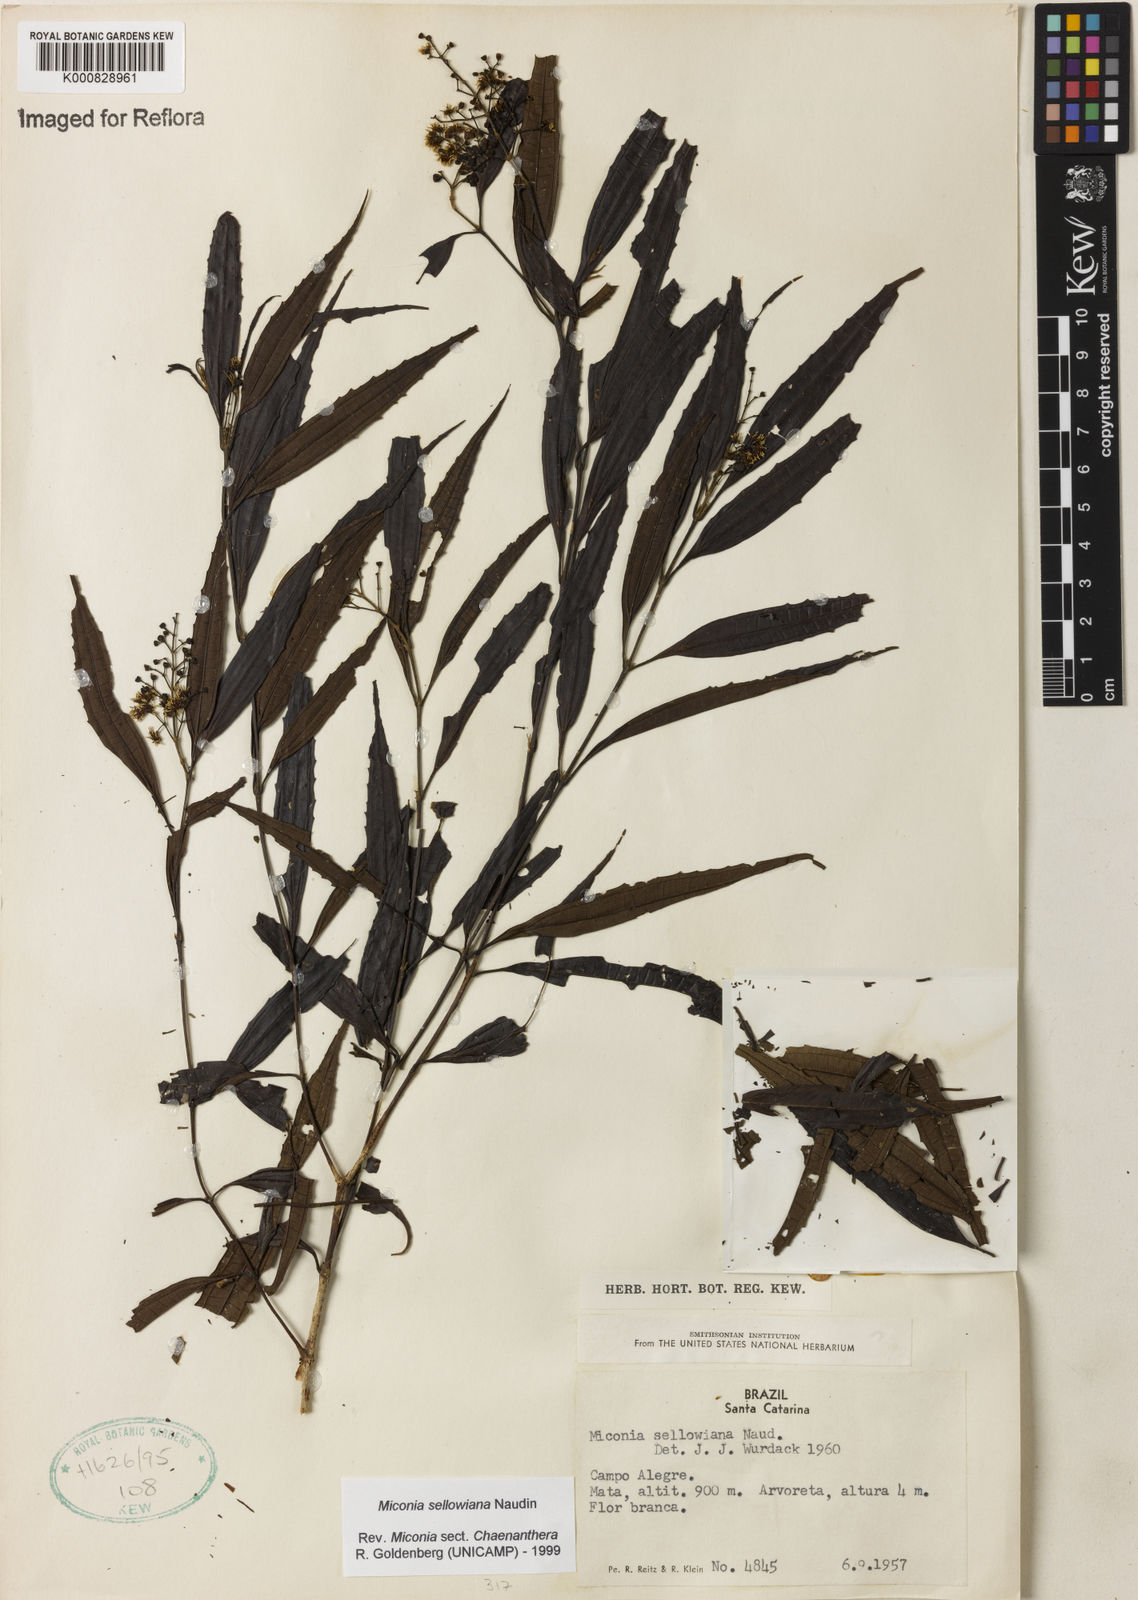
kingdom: Plantae
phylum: Tracheophyta
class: Magnoliopsida
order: Myrtales
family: Melastomataceae
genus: Miconia
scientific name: Miconia sellowiana
